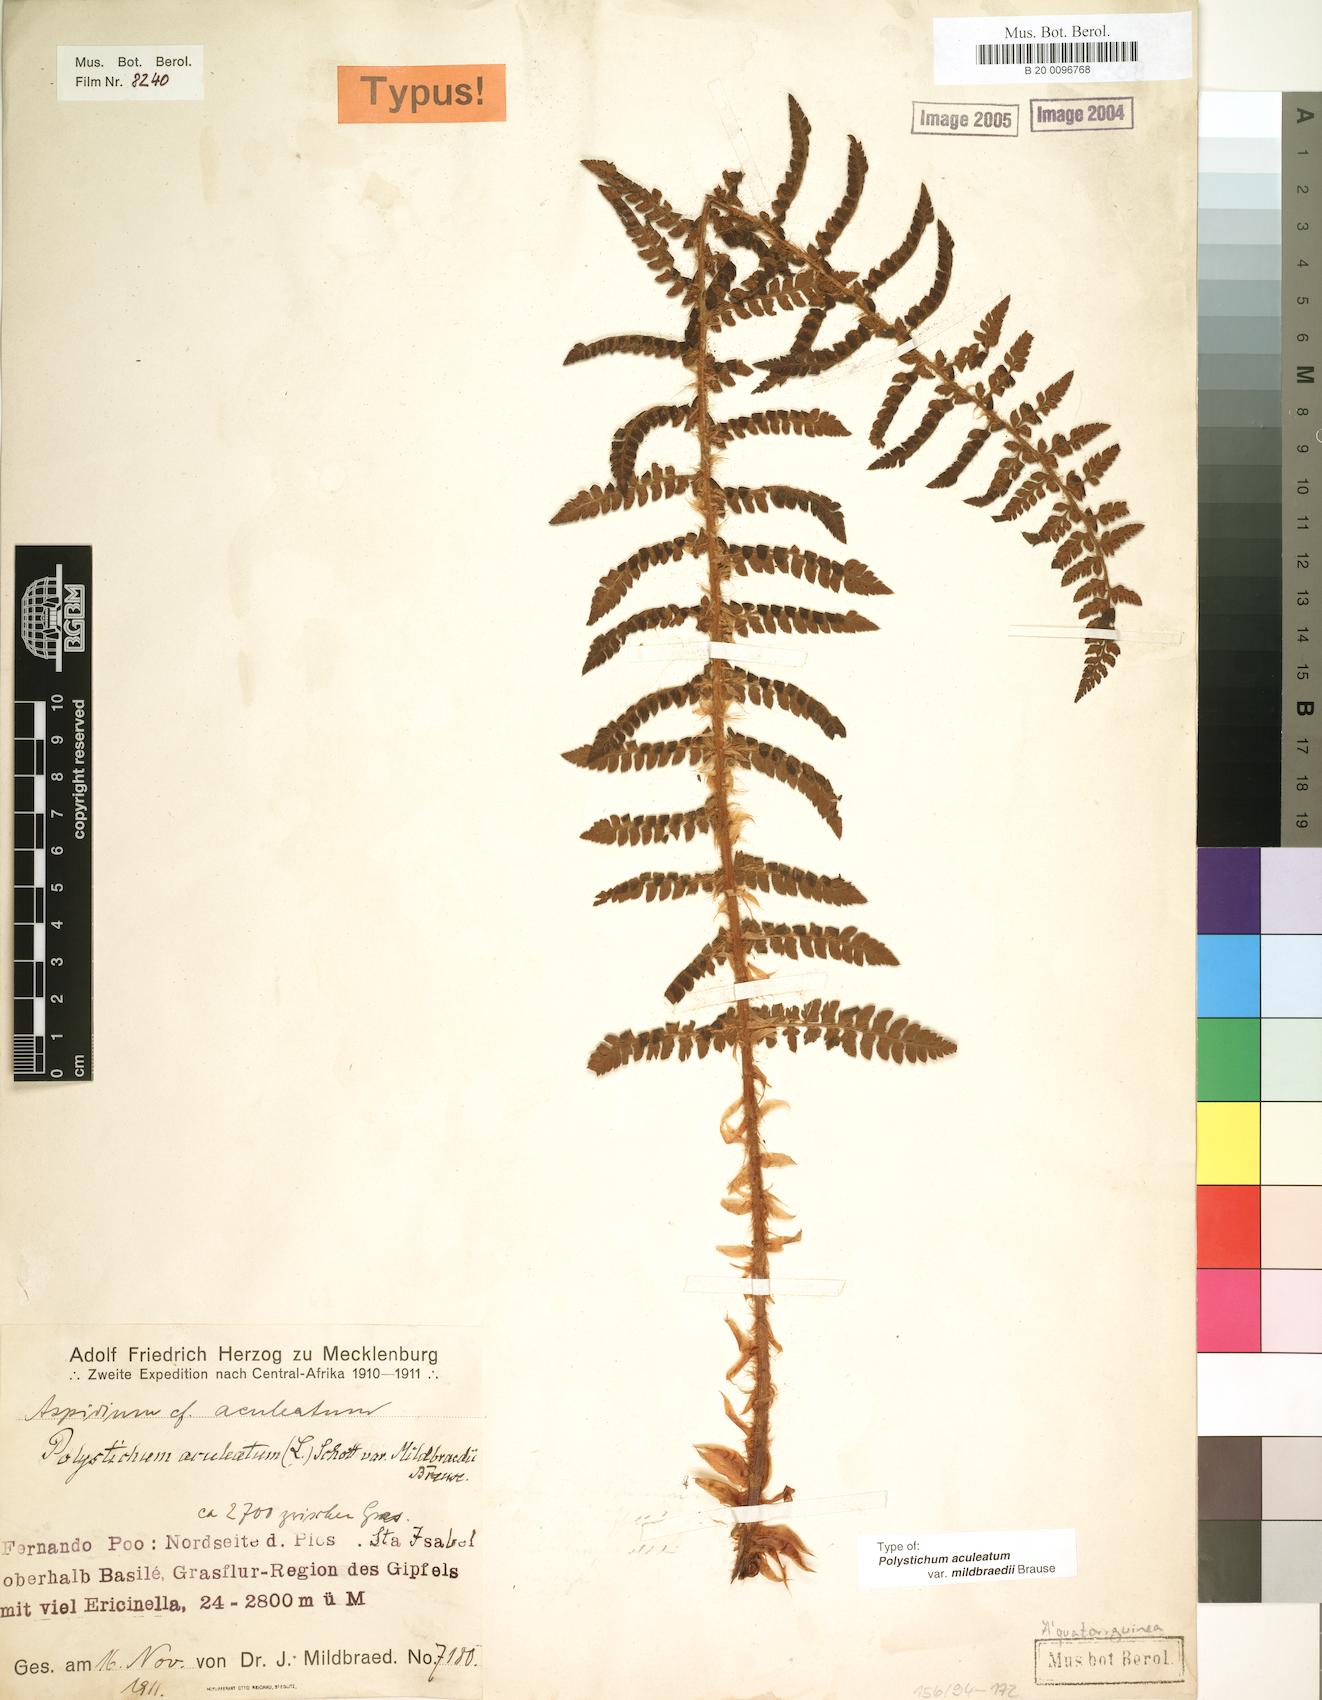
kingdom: Plantae
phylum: Tracheophyta
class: Polypodiopsida
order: Polypodiales
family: Dryopteridaceae
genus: Polystichum
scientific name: Polystichum sinense
